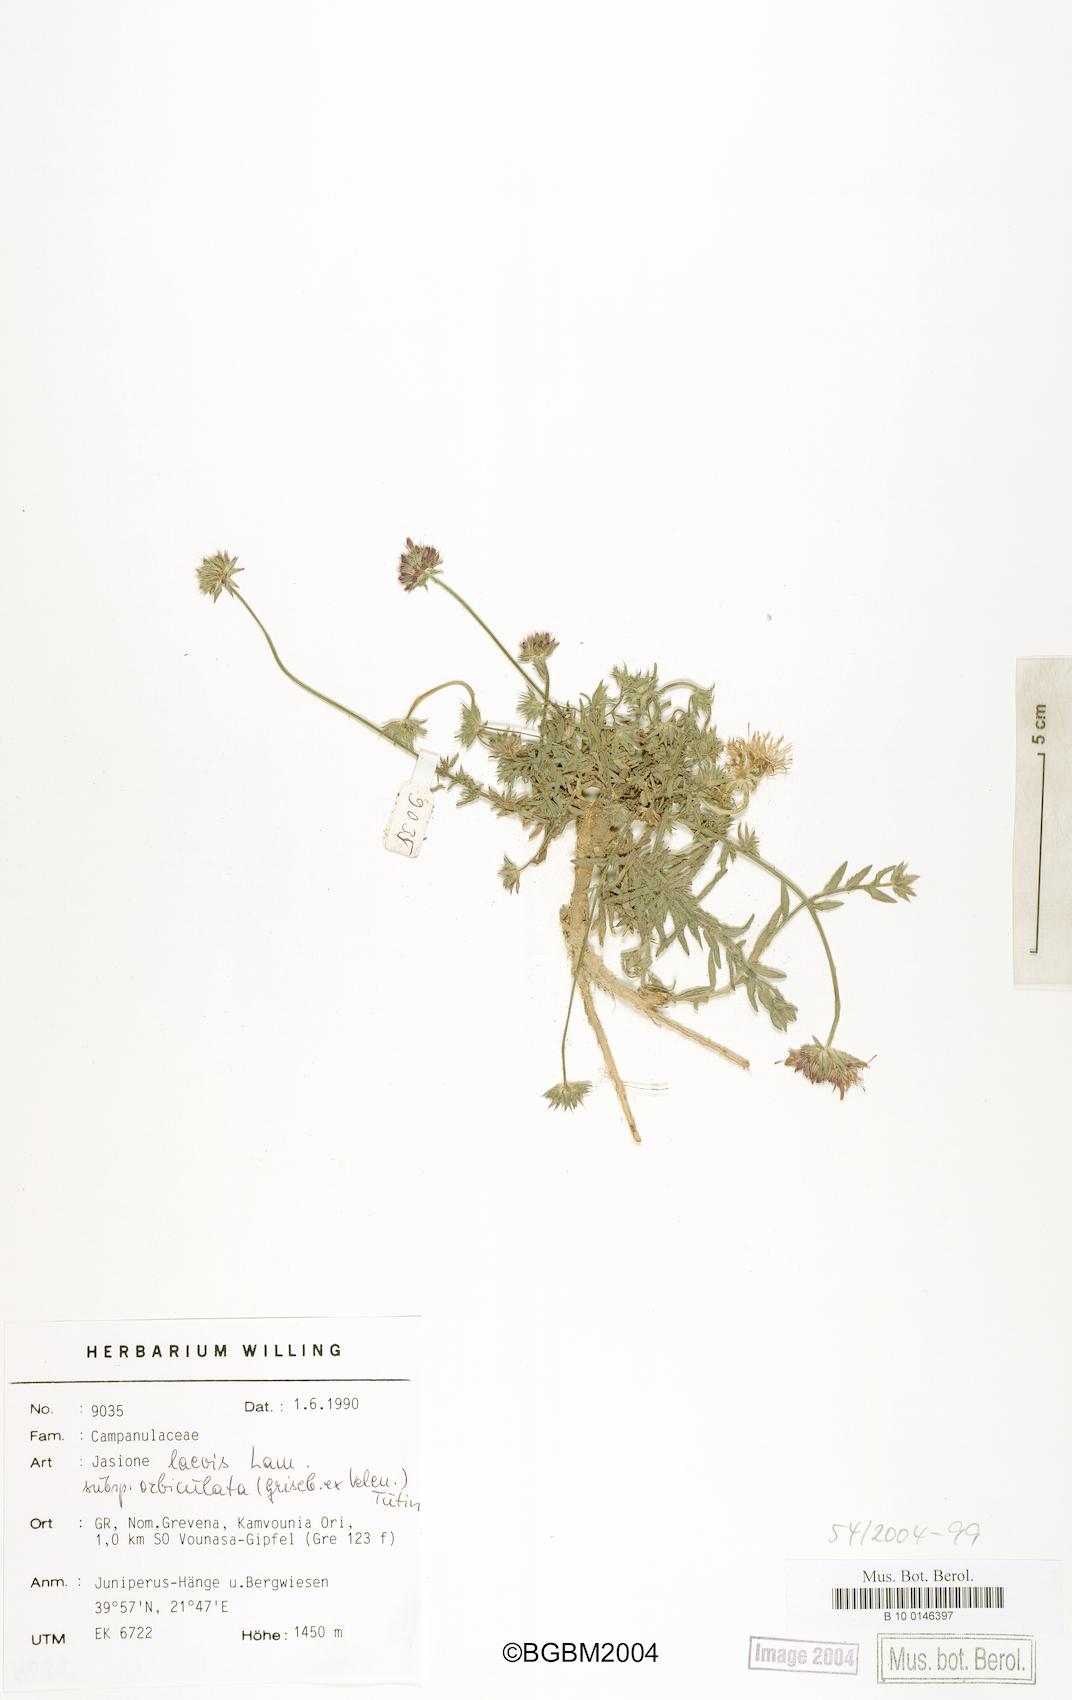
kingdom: Plantae
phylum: Tracheophyta
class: Magnoliopsida
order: Asterales
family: Campanulaceae
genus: Jasione
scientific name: Jasione orbiculata
